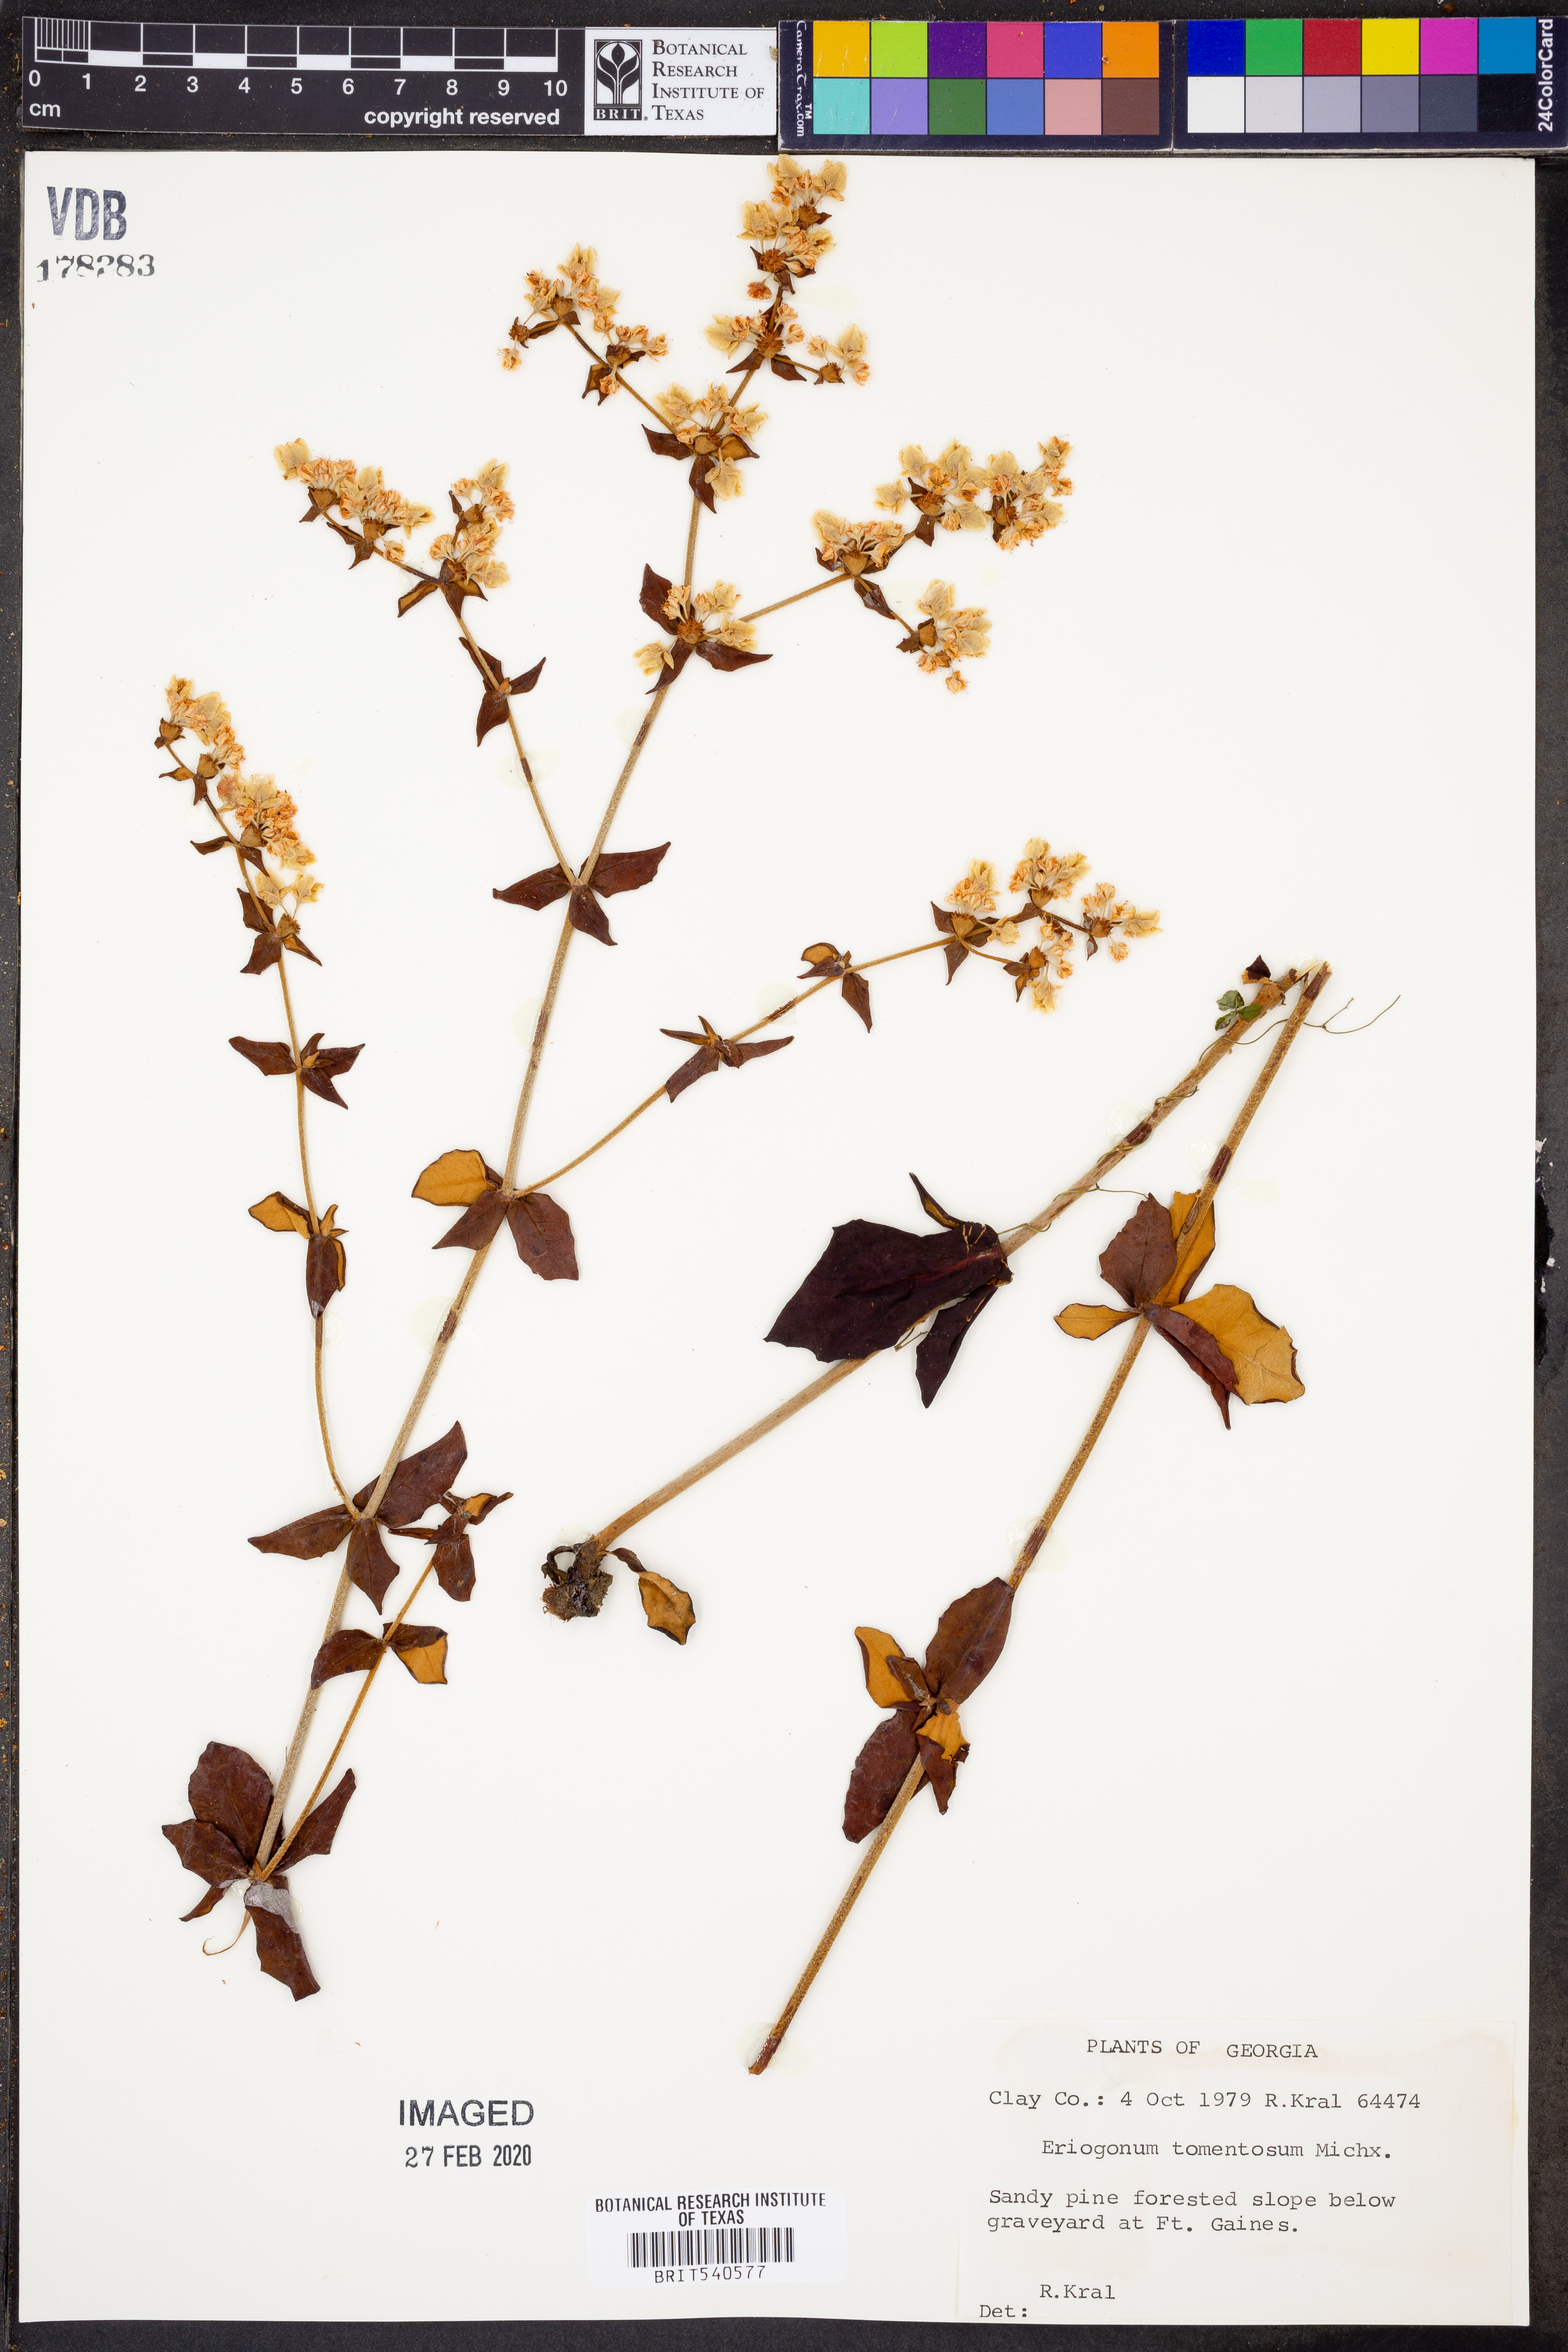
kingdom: Plantae
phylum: Tracheophyta
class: Magnoliopsida
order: Caryophyllales
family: Polygonaceae
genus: Eriogonum
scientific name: Eriogonum tomentosum
